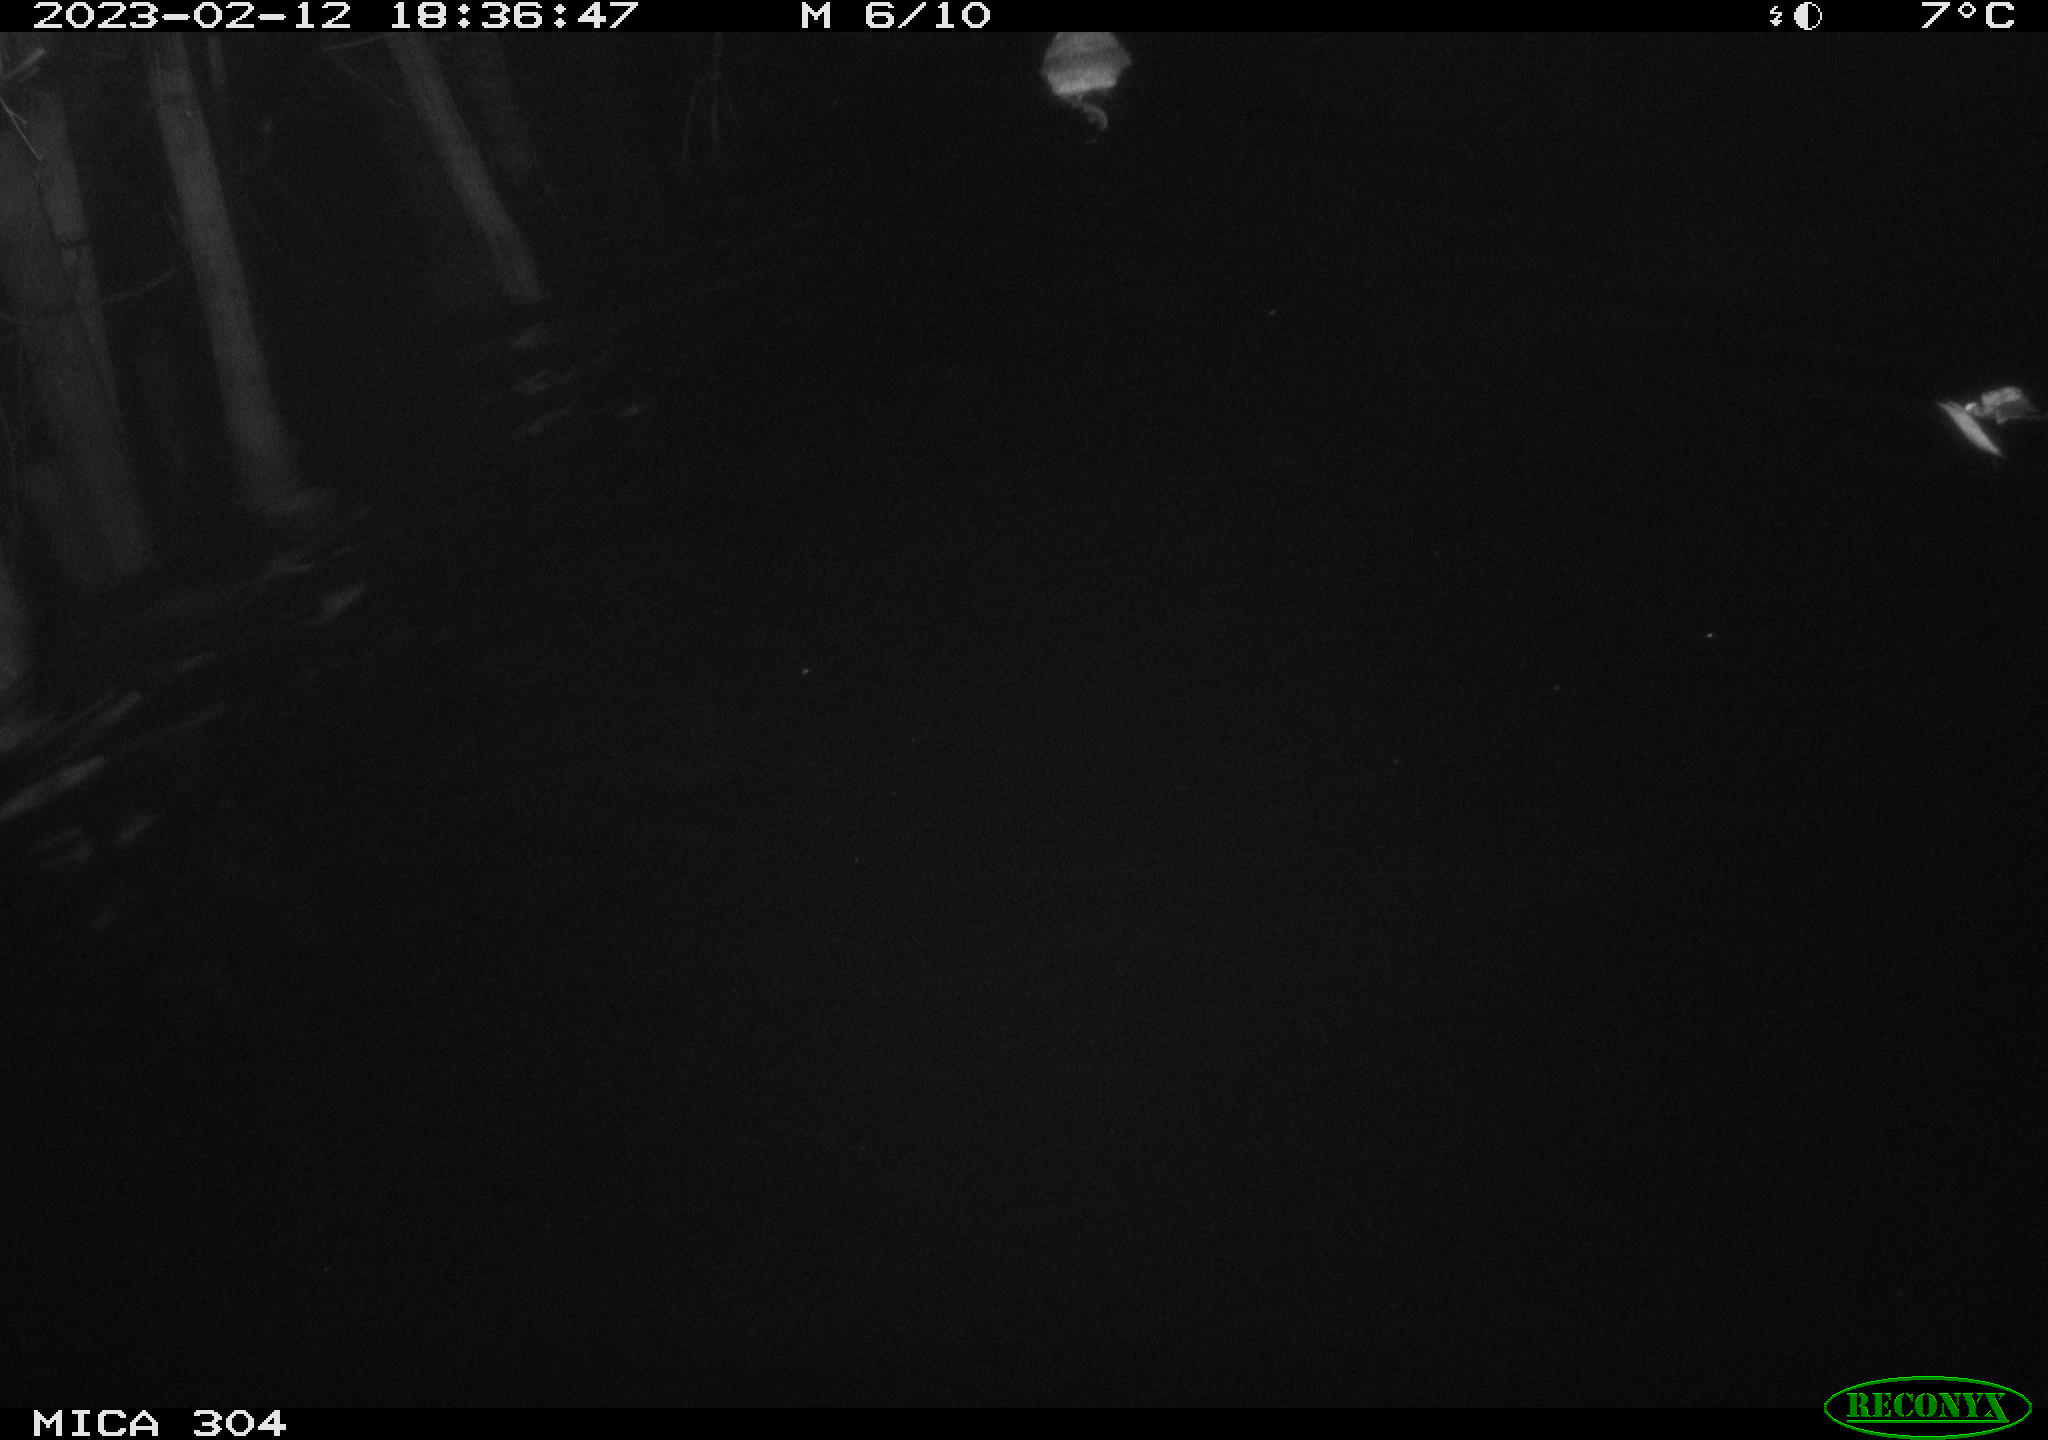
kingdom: Animalia
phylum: Chordata
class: Mammalia
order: Rodentia
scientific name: Rodentia
